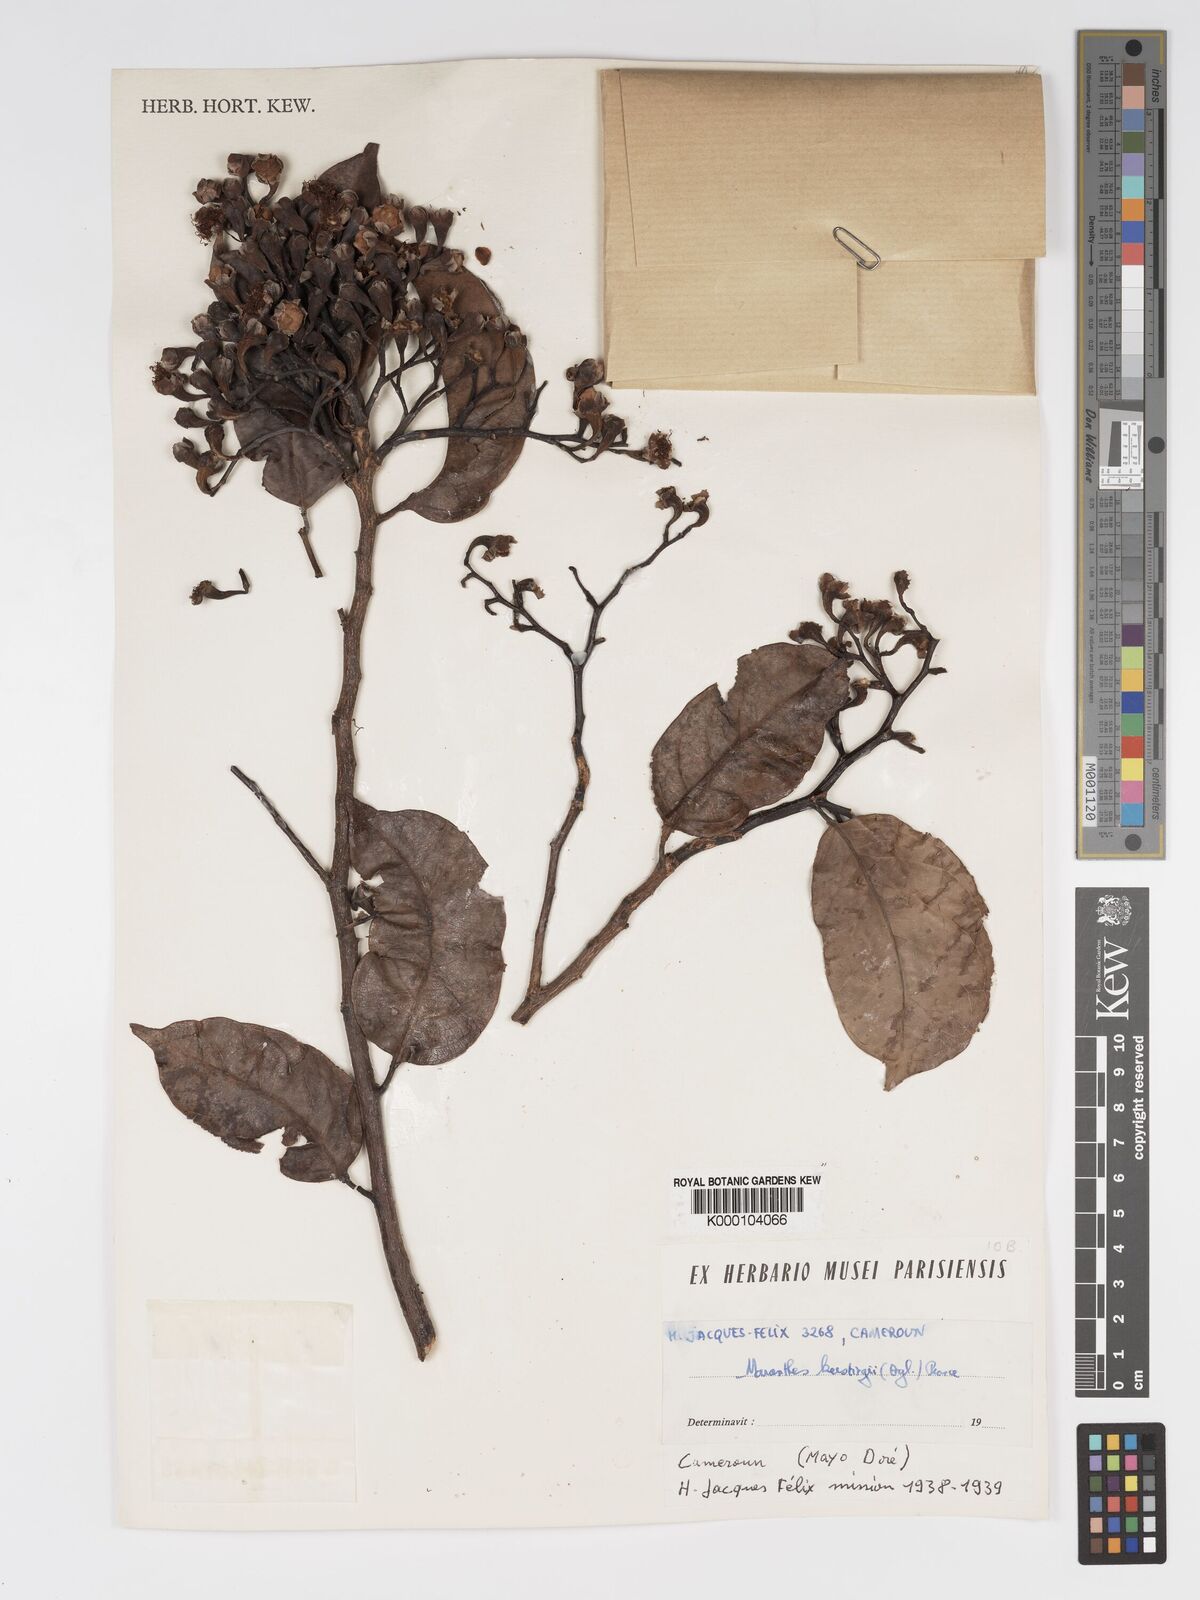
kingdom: Plantae
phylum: Tracheophyta
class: Magnoliopsida
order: Malpighiales
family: Chrysobalanaceae
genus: Maranthes
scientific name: Maranthes
